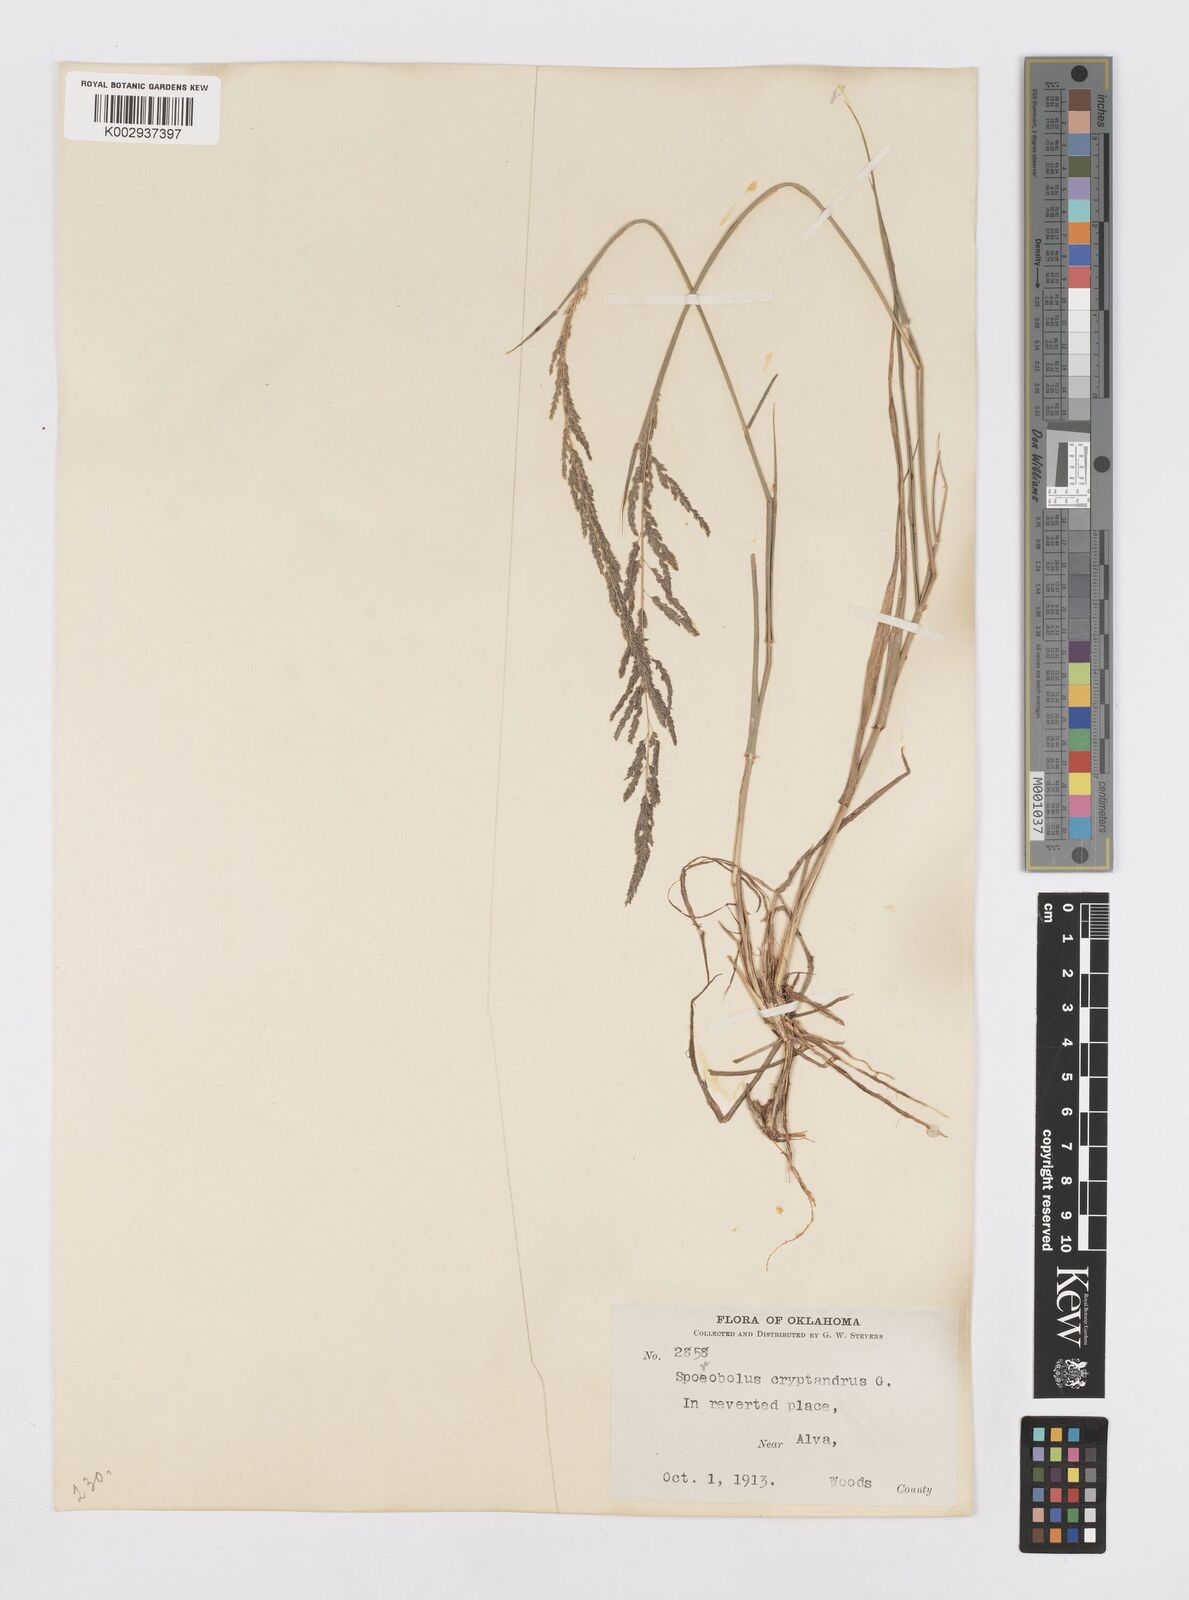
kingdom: Plantae
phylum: Tracheophyta
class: Liliopsida
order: Poales
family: Poaceae
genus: Sporobolus
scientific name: Sporobolus cryptandrus
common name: Sand dropseed
